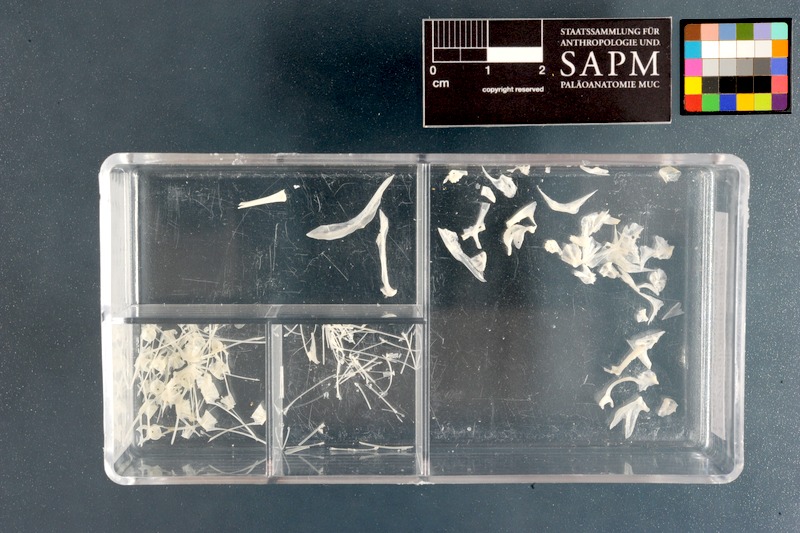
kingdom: Animalia
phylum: Chordata
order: Pleuronectiformes
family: Cynoglossidae
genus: Cynoglossus
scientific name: Cynoglossus capensis
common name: Sand tonguefish
